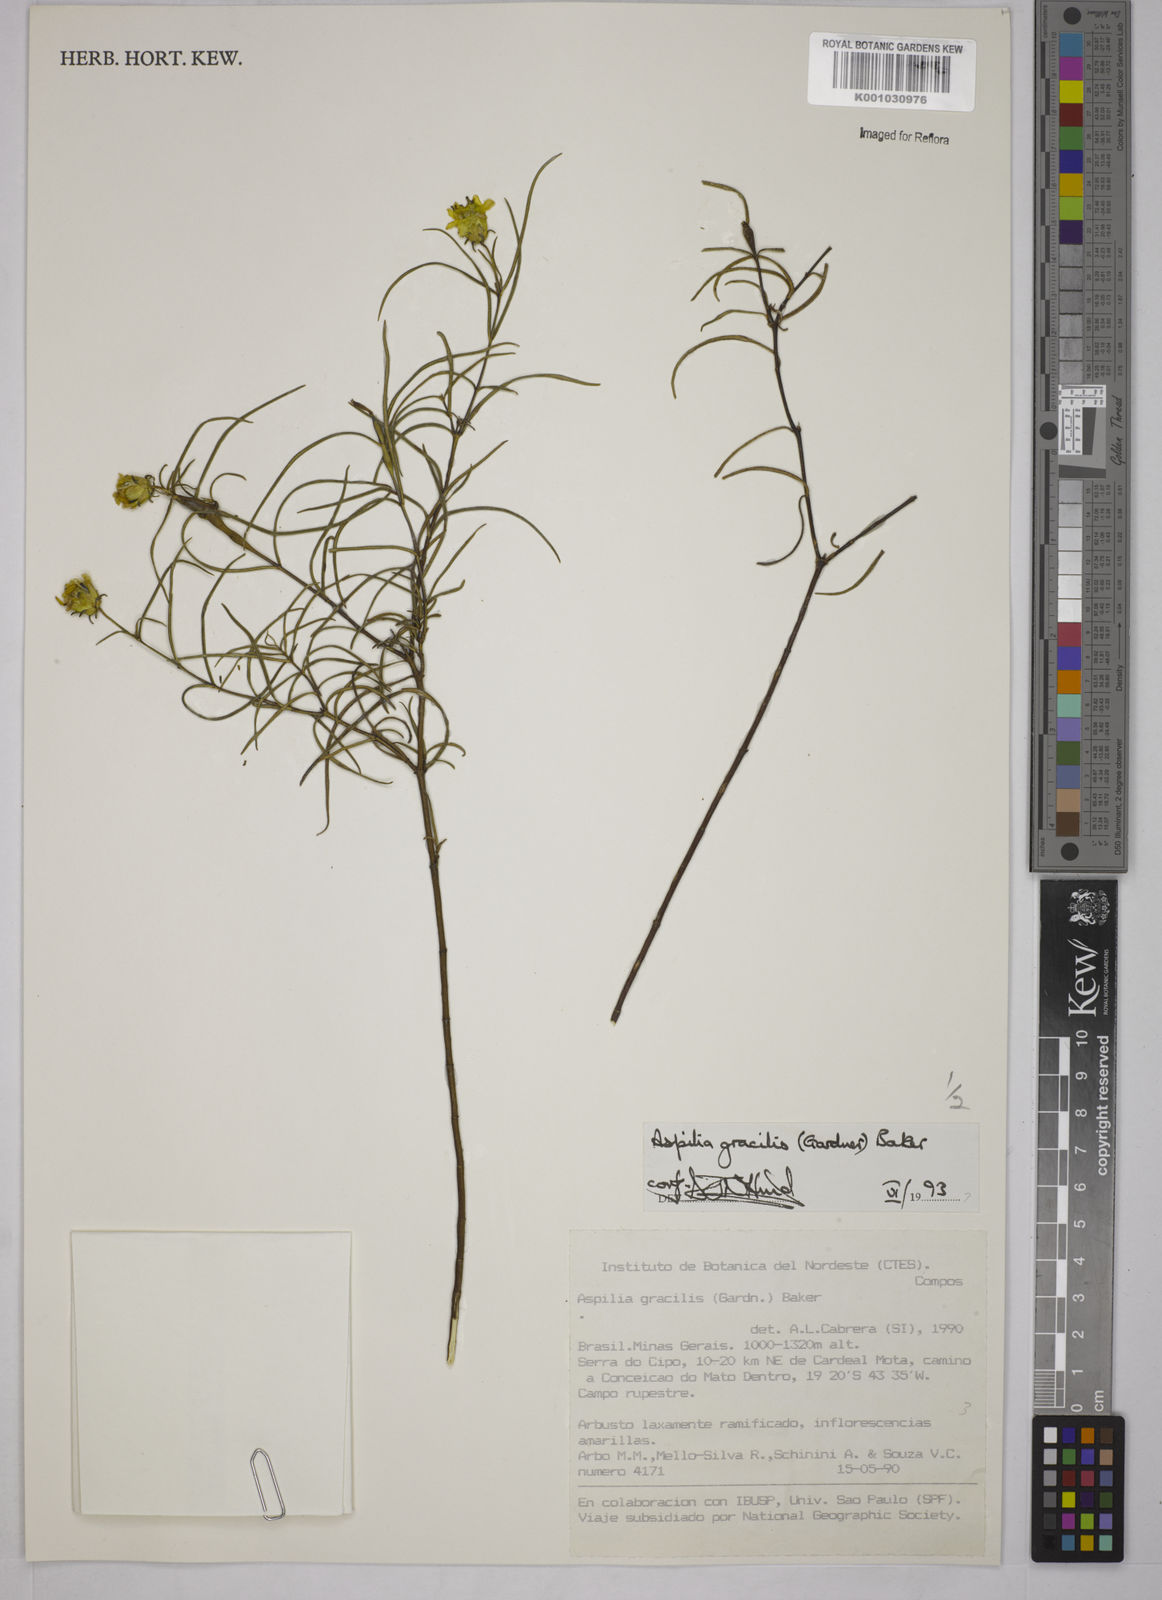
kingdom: Plantae
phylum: Tracheophyta
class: Magnoliopsida
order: Asterales
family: Asteraceae
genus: Wedelia
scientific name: Wedelia floribunda
